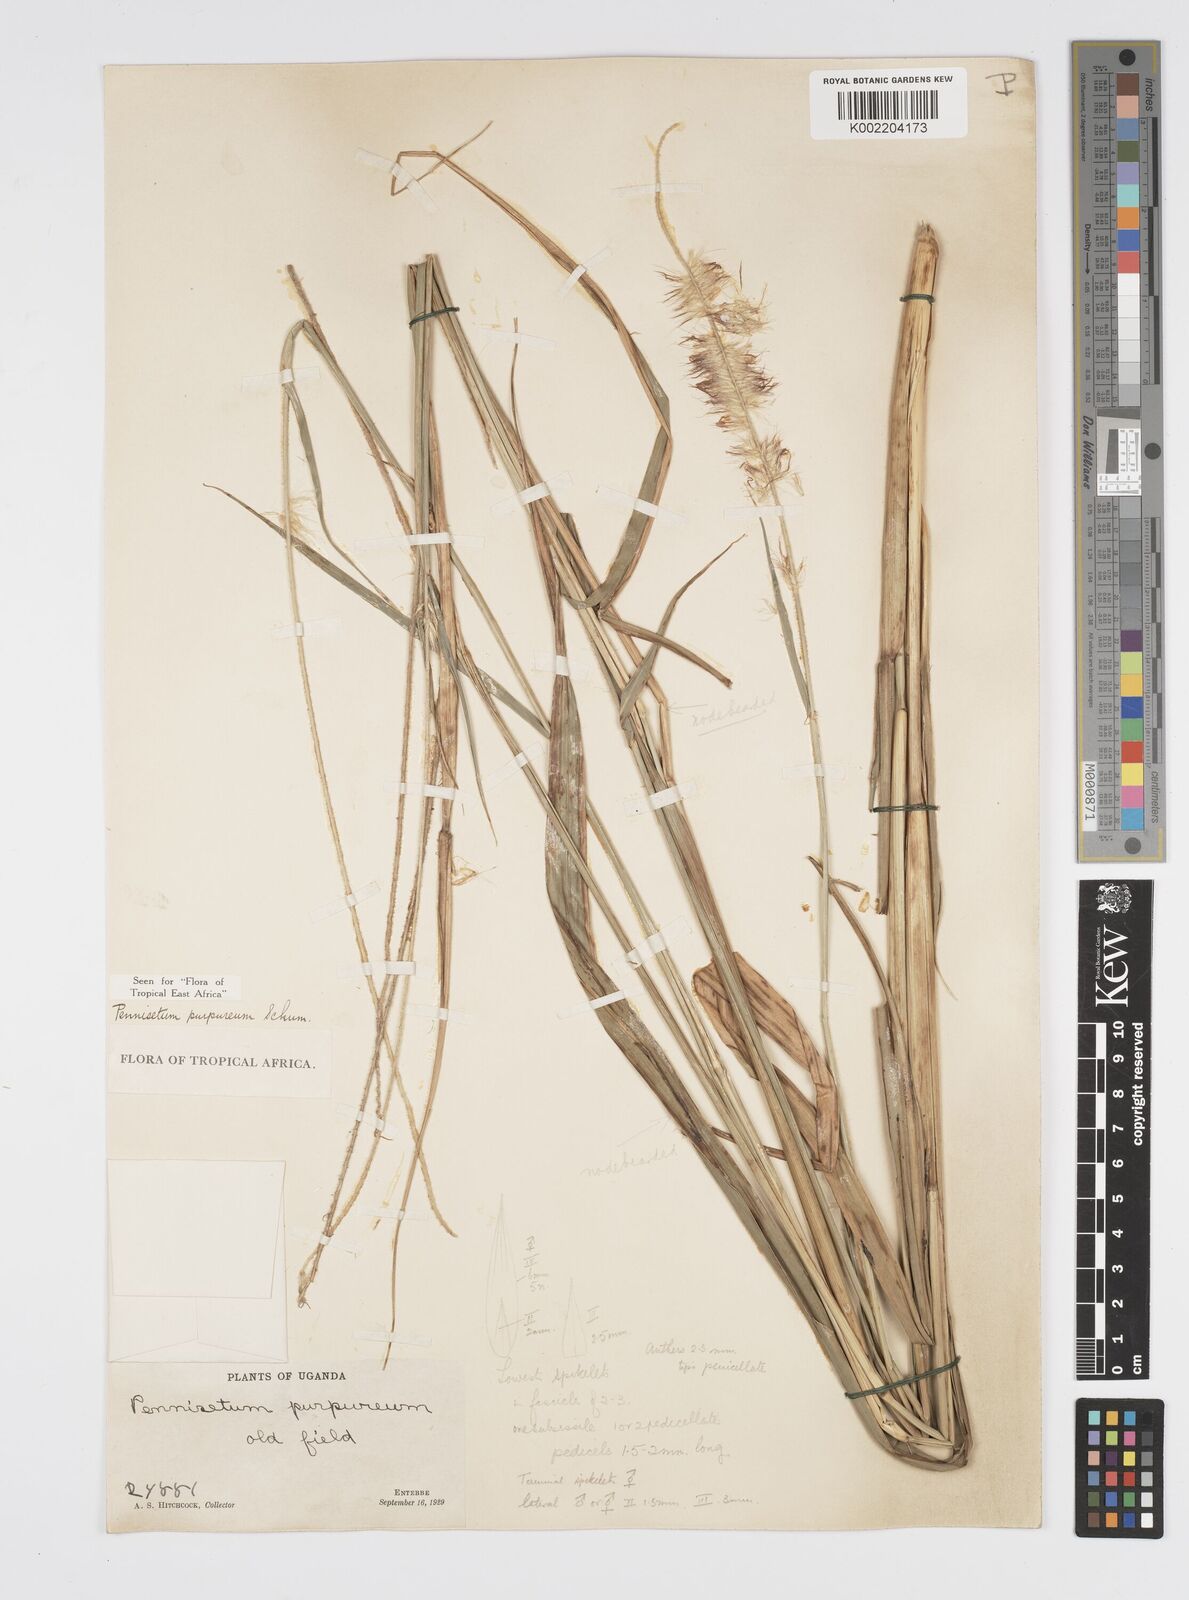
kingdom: Plantae
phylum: Tracheophyta
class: Liliopsida
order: Poales
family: Poaceae
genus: Cenchrus
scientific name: Cenchrus purpureus
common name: Elephant grass
